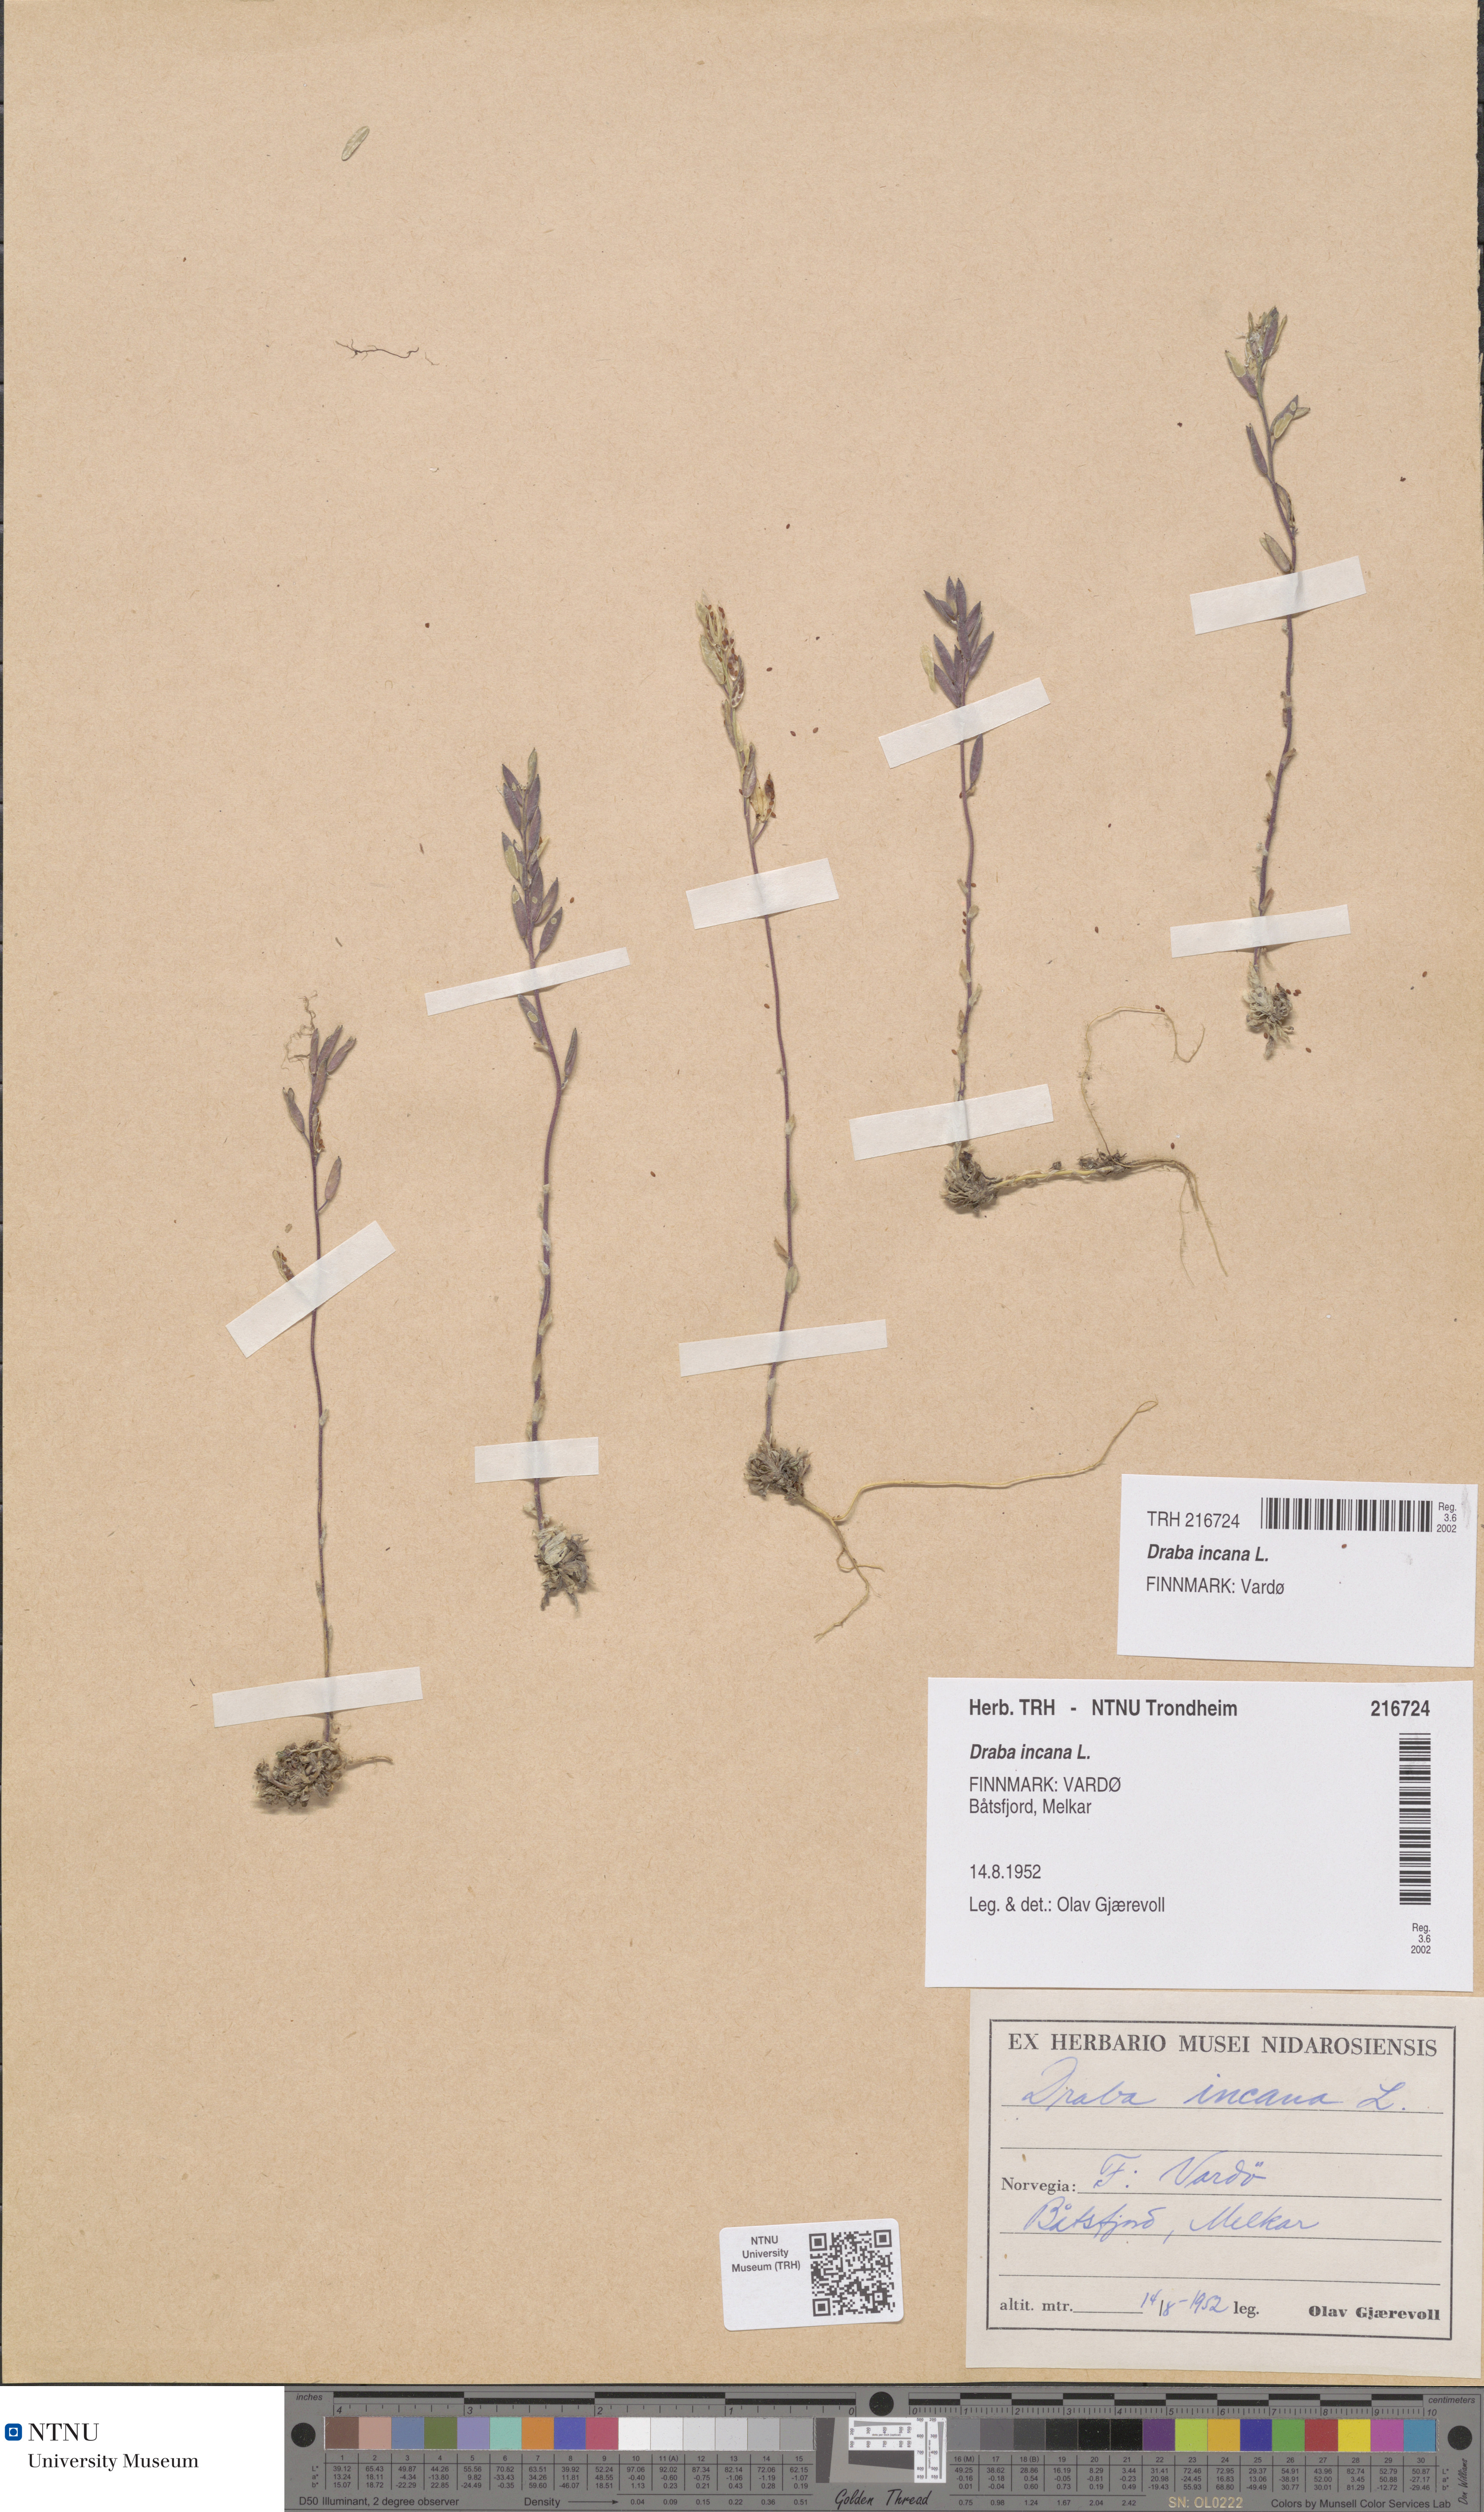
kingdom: Plantae
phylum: Tracheophyta
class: Magnoliopsida
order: Brassicales
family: Brassicaceae
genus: Draba
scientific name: Draba incana
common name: Hoary whitlow-grass
